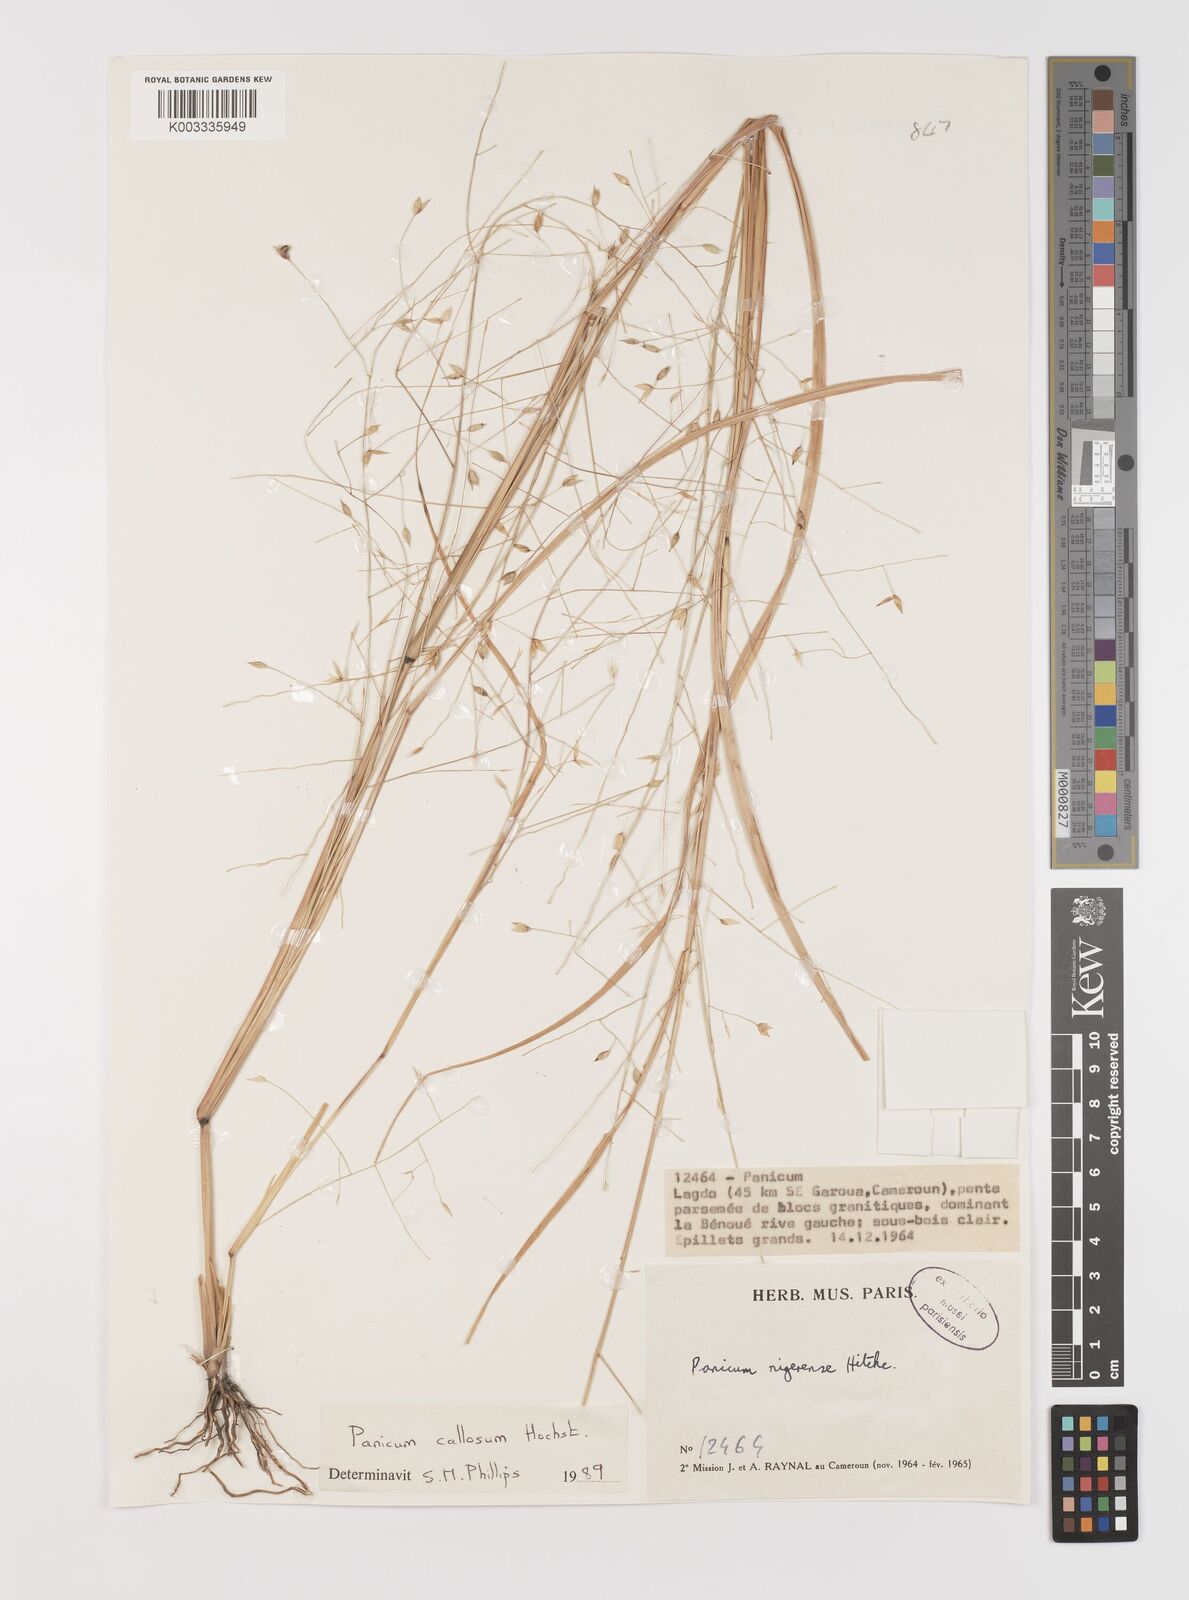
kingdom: Plantae
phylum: Tracheophyta
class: Liliopsida
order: Poales
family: Poaceae
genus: Panicum
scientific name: Panicum callosum
